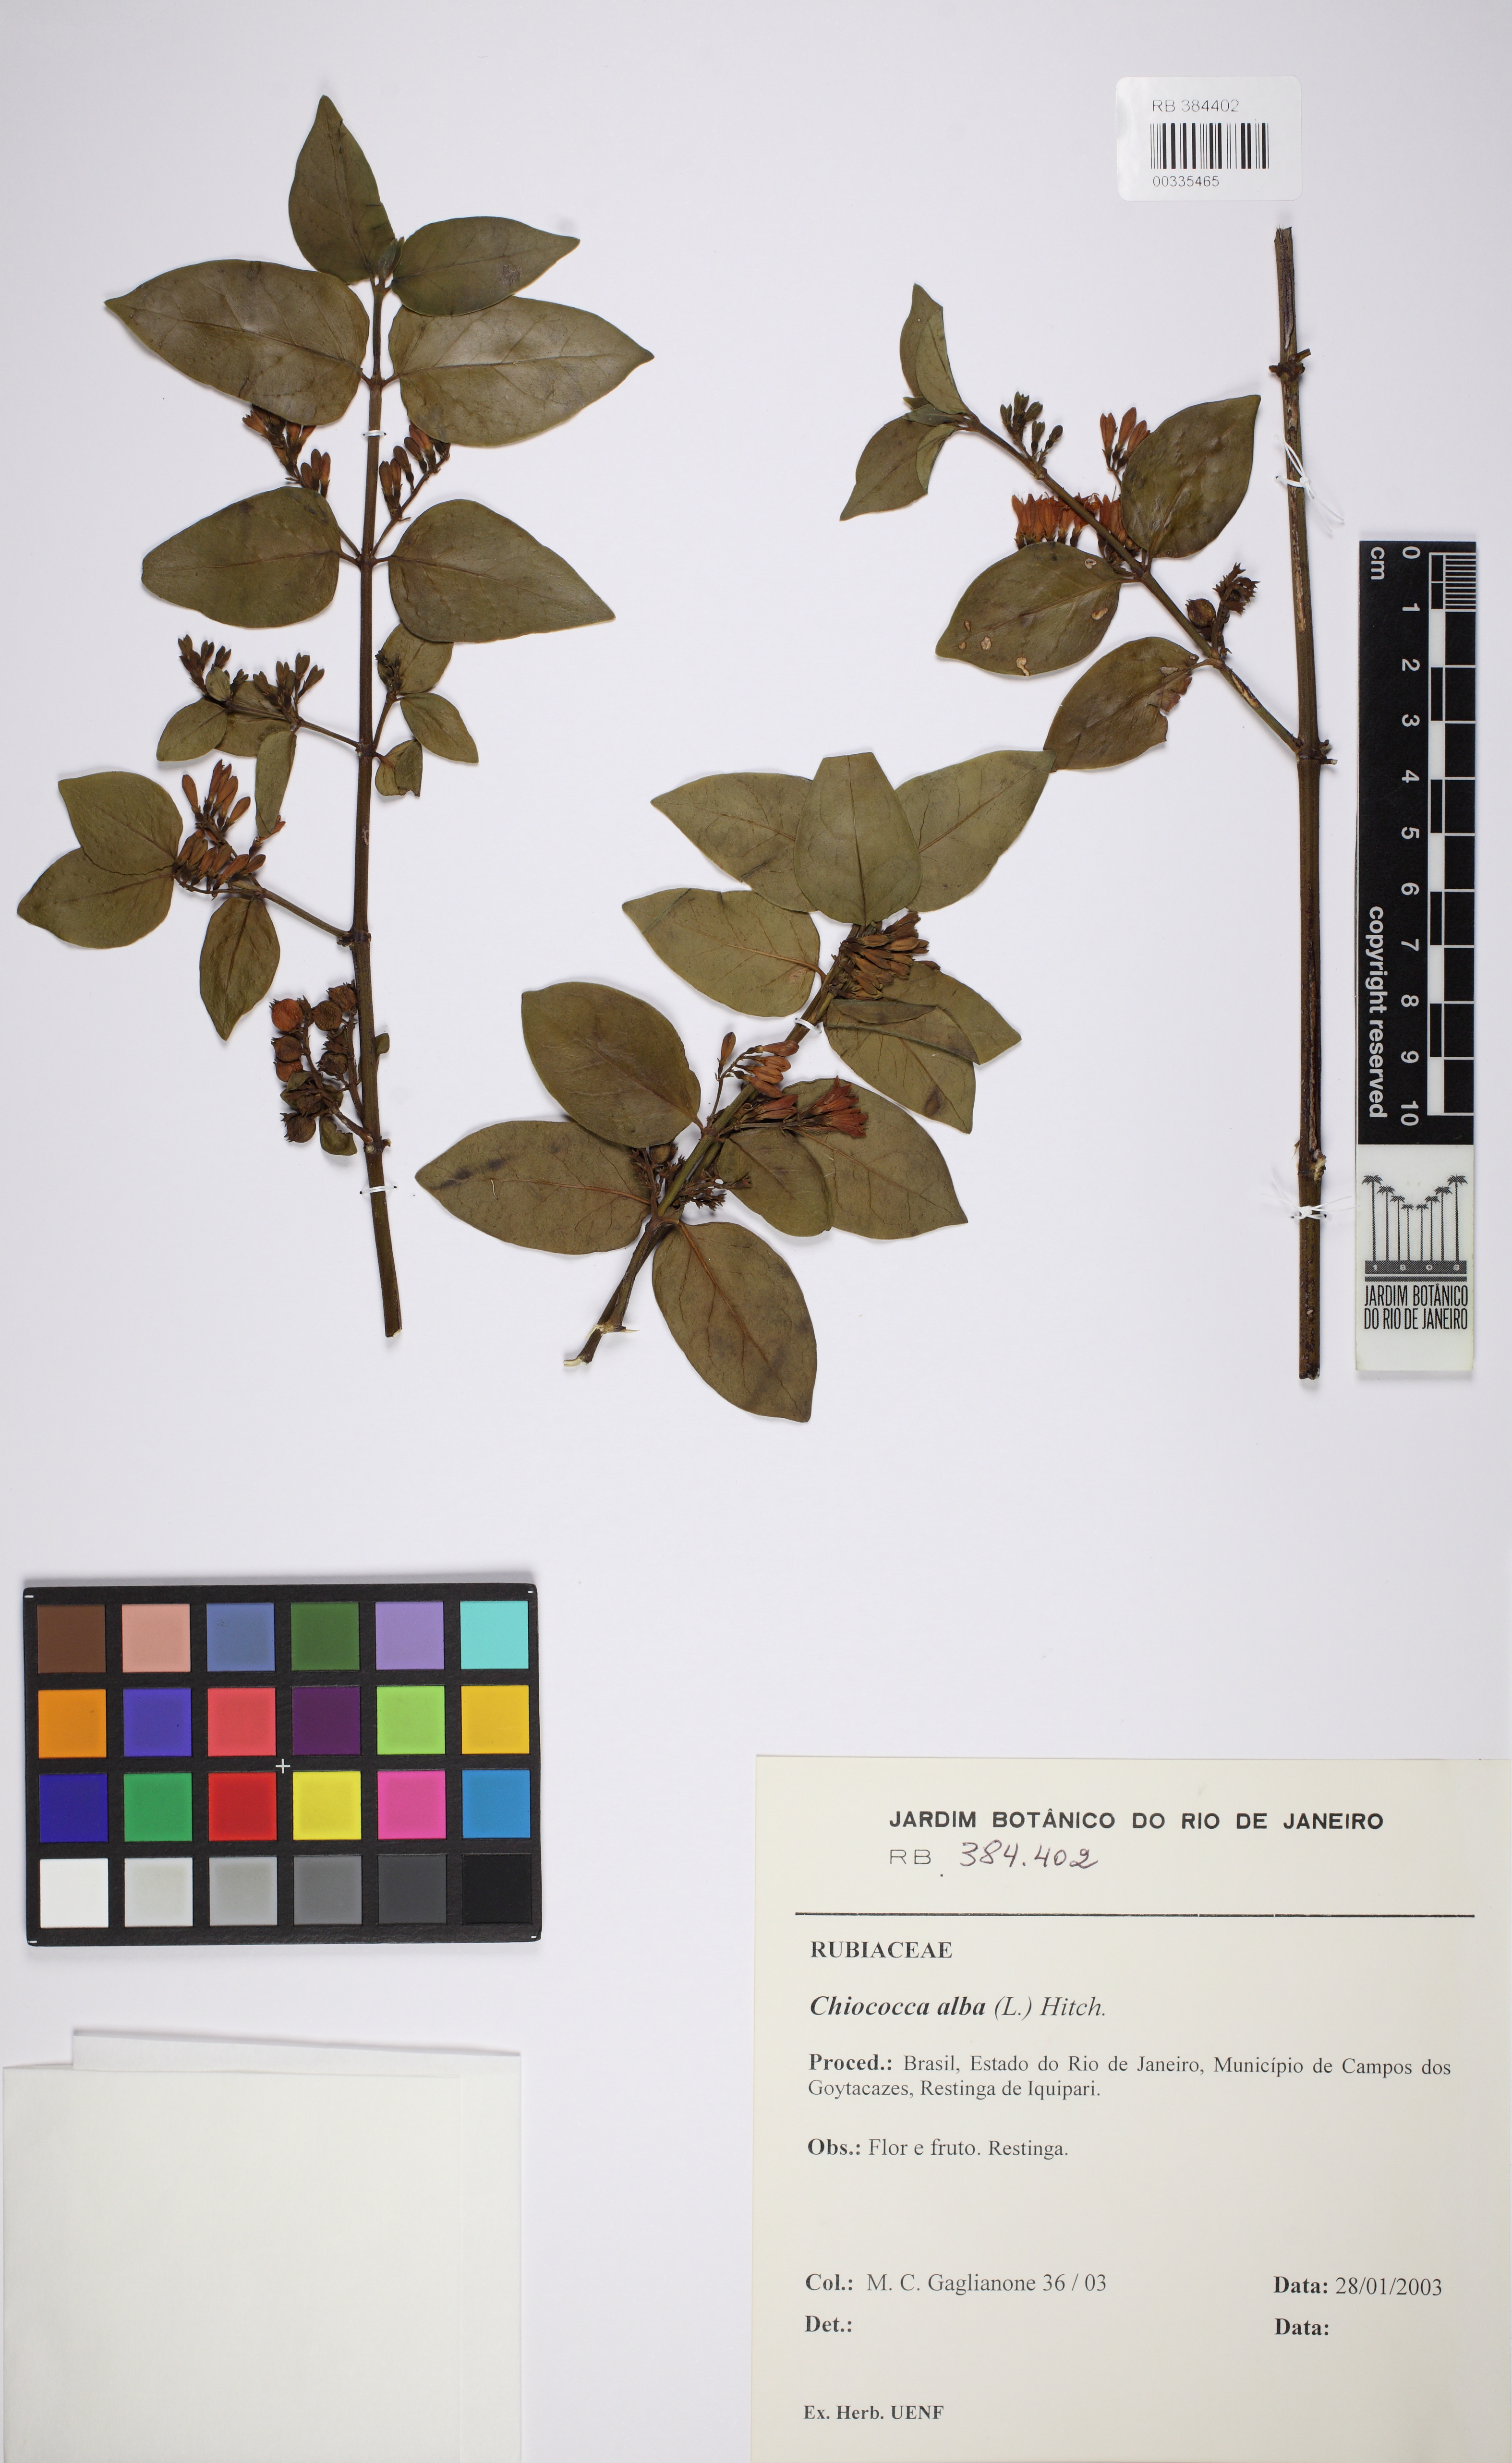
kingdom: Plantae
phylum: Tracheophyta
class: Magnoliopsida
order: Gentianales
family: Rubiaceae
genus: Chiococca
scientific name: Chiococca alba
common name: Snowberry
